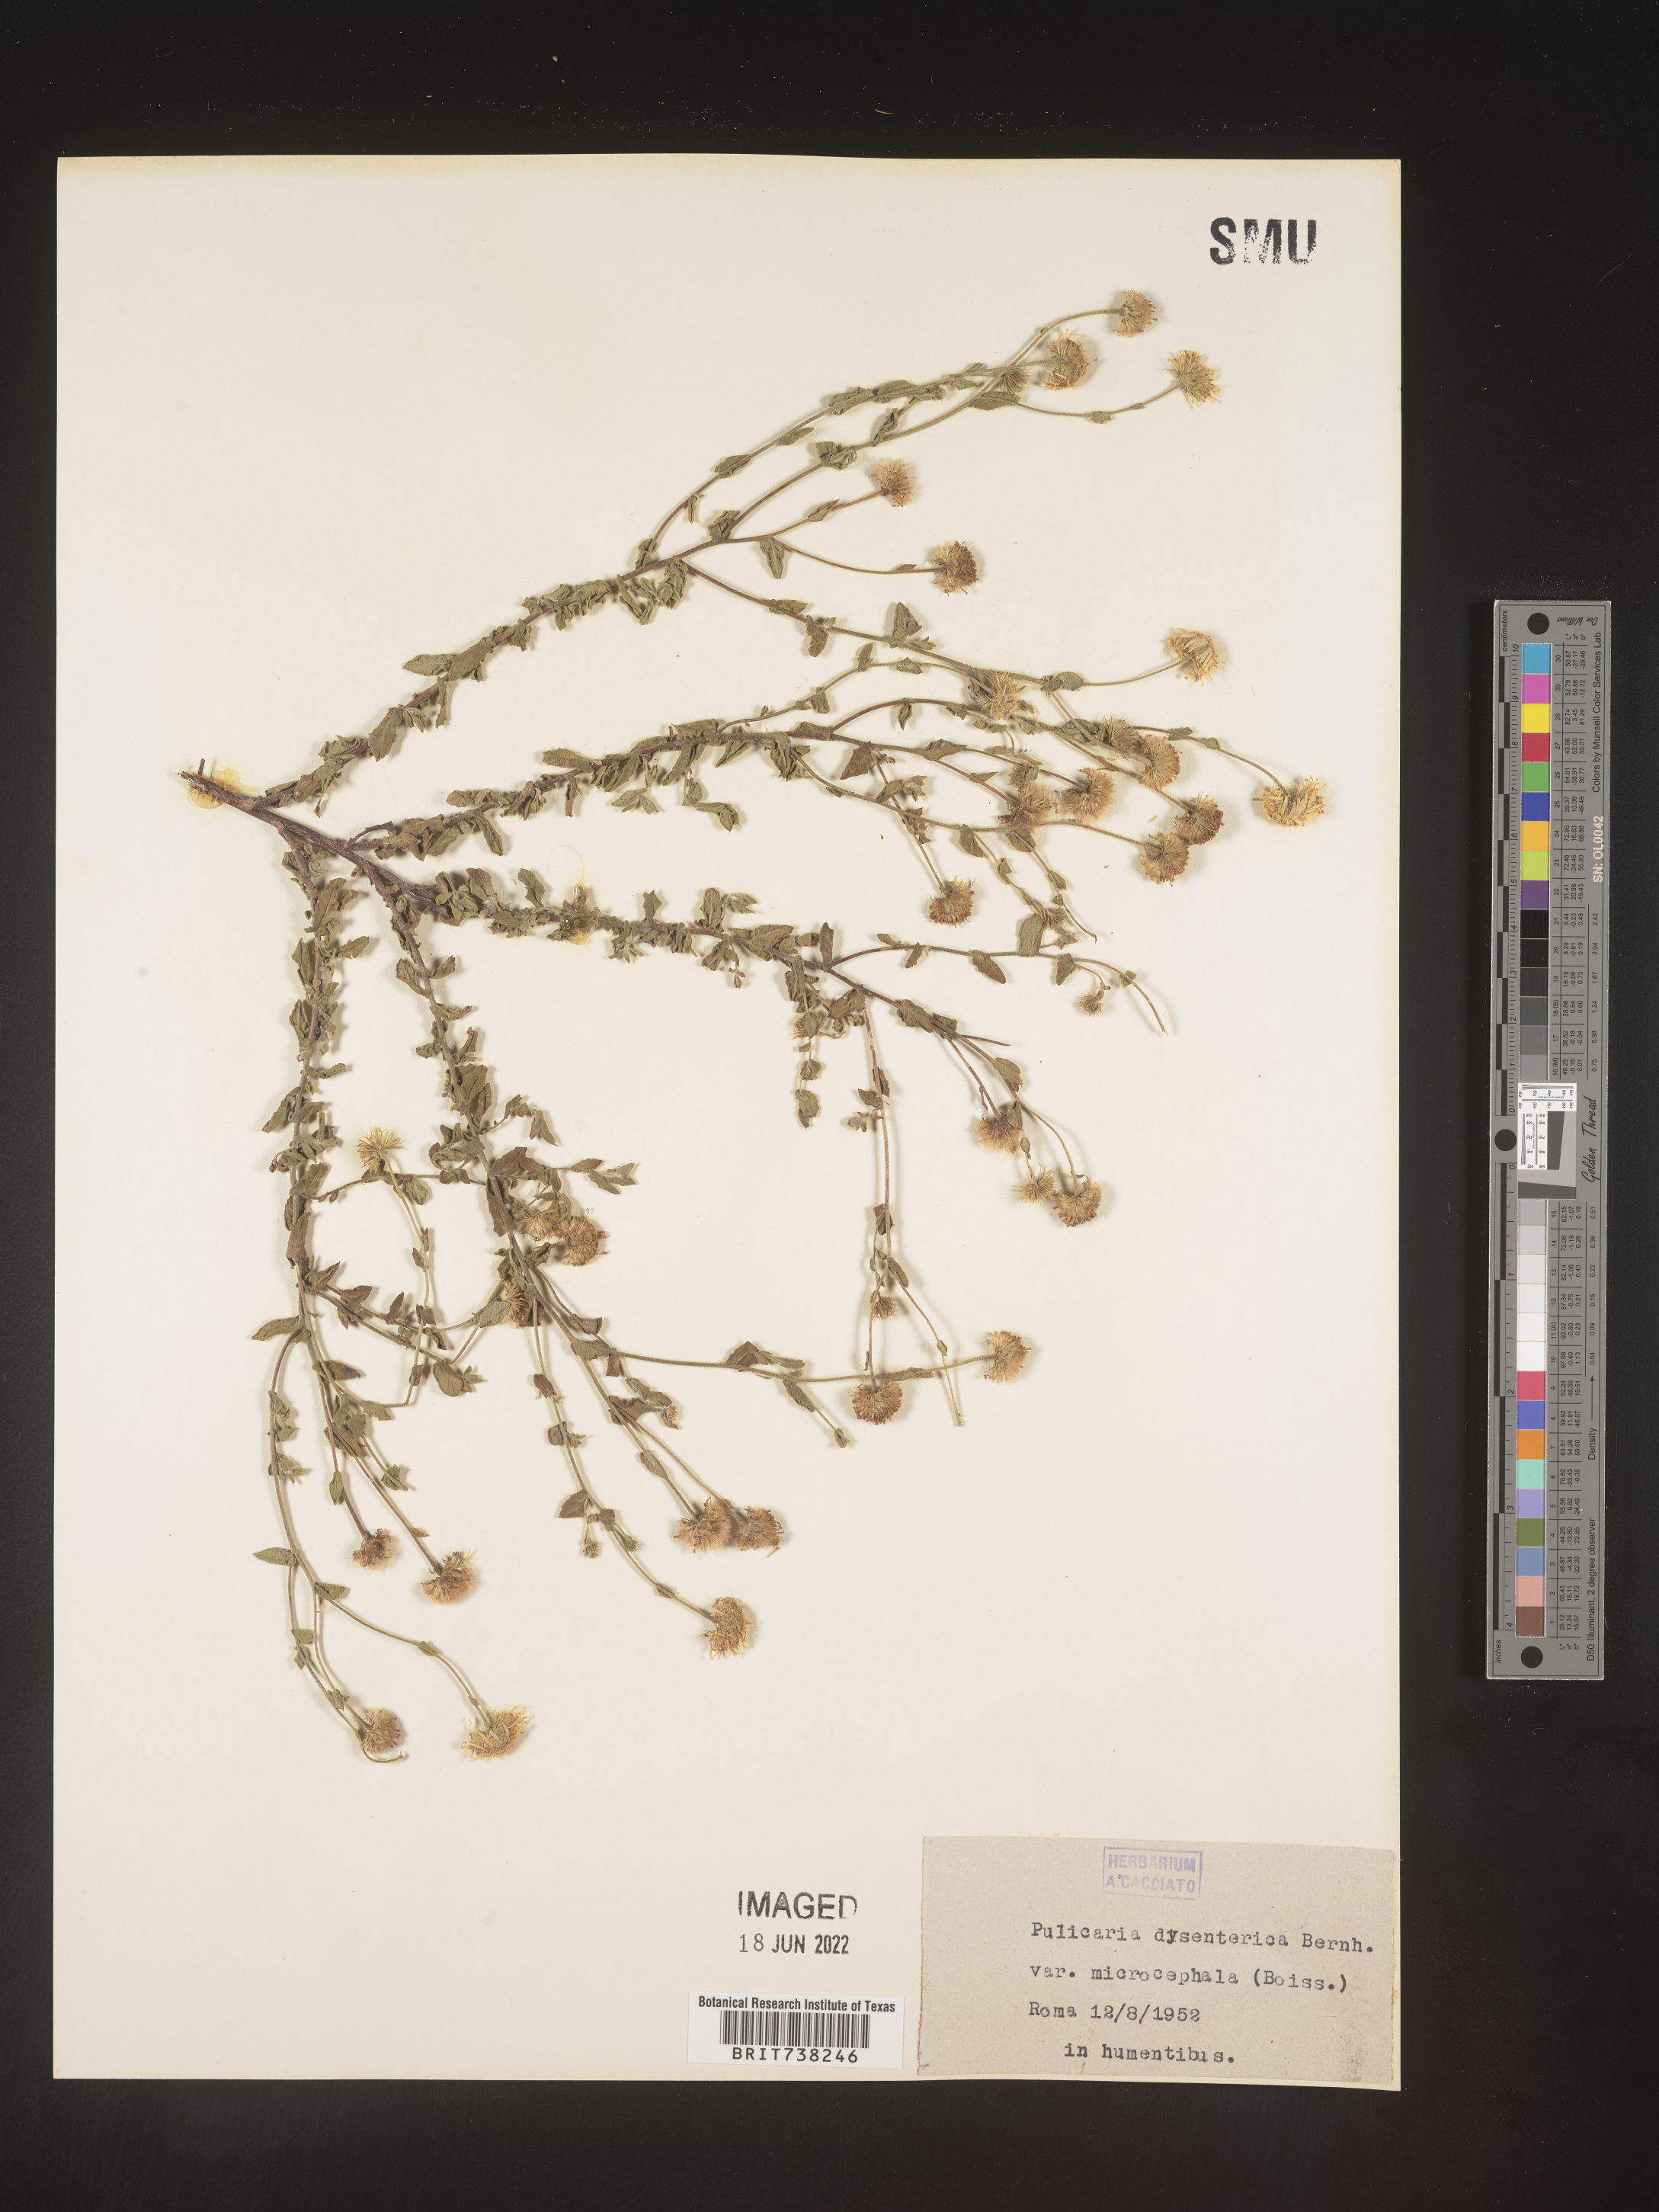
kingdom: Plantae
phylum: Tracheophyta
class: Magnoliopsida
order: Asterales
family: Asteraceae
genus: Pulicaria
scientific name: Pulicaria
